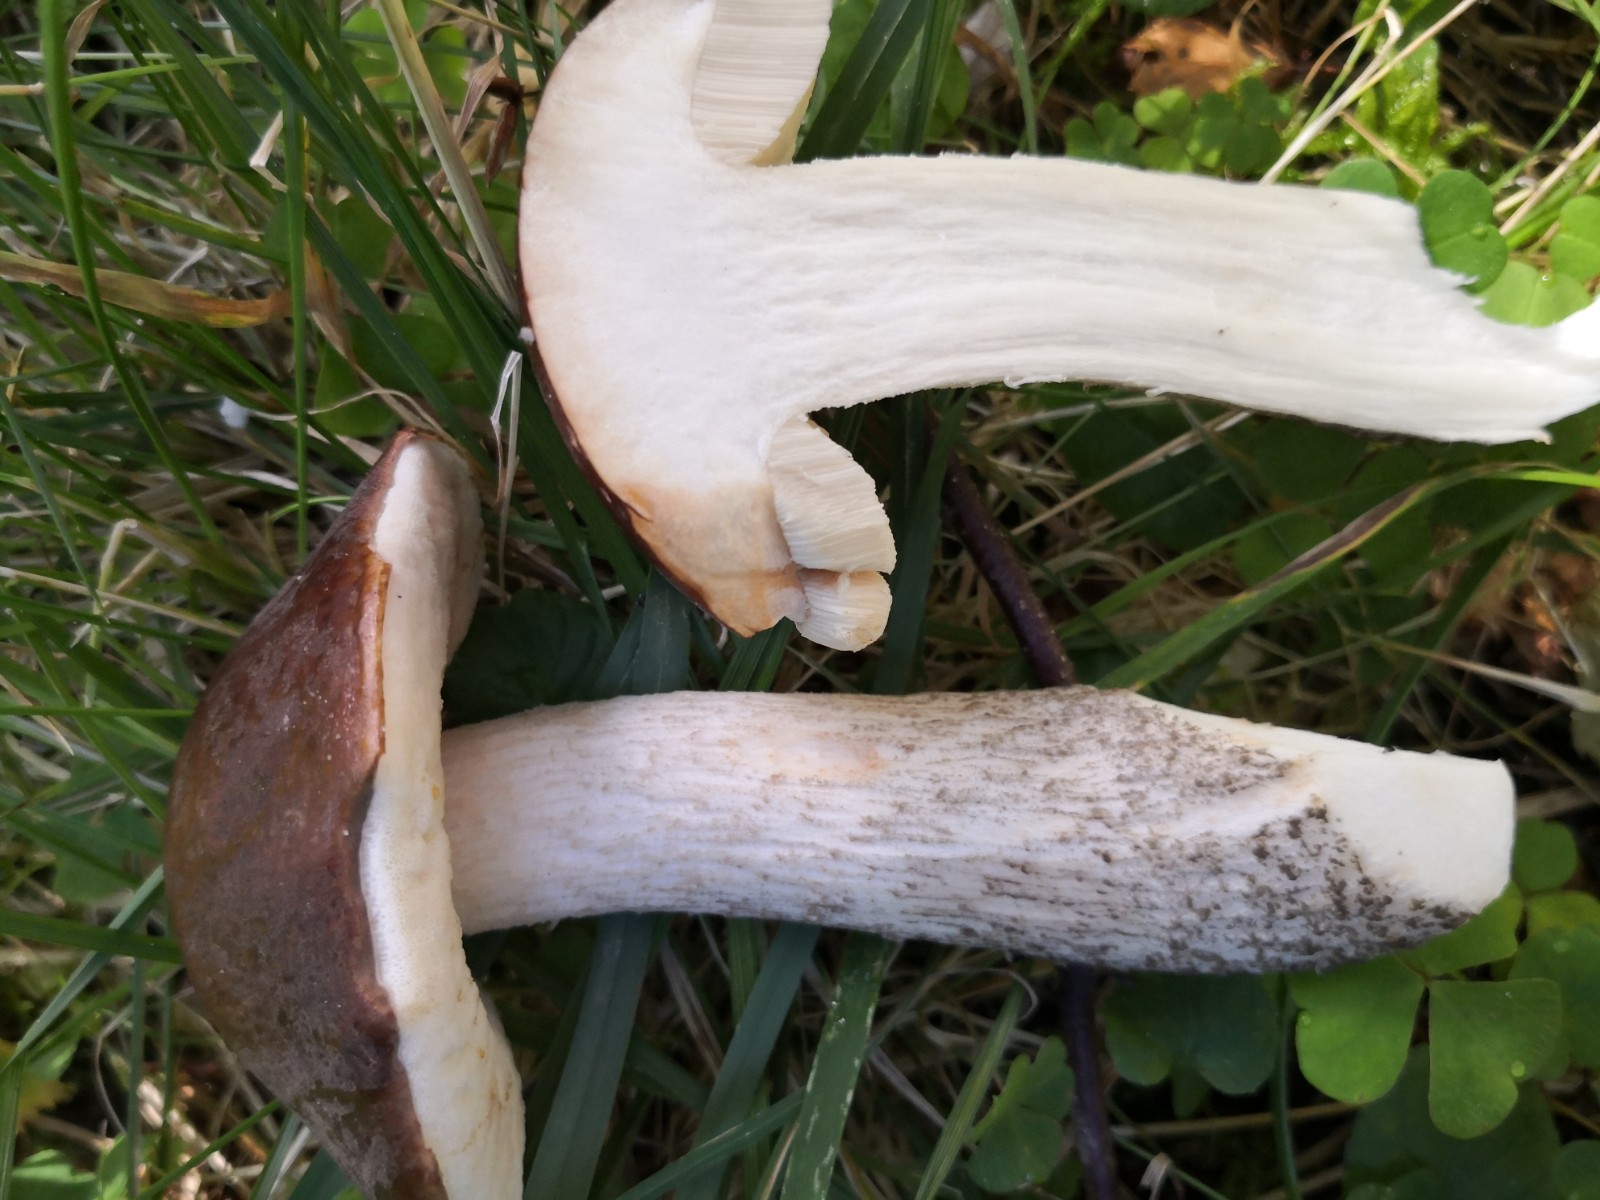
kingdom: Fungi
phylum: Basidiomycota
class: Agaricomycetes
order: Boletales
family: Boletaceae
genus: Leccinum
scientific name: Leccinum scabrum
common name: brun skælrørhat
